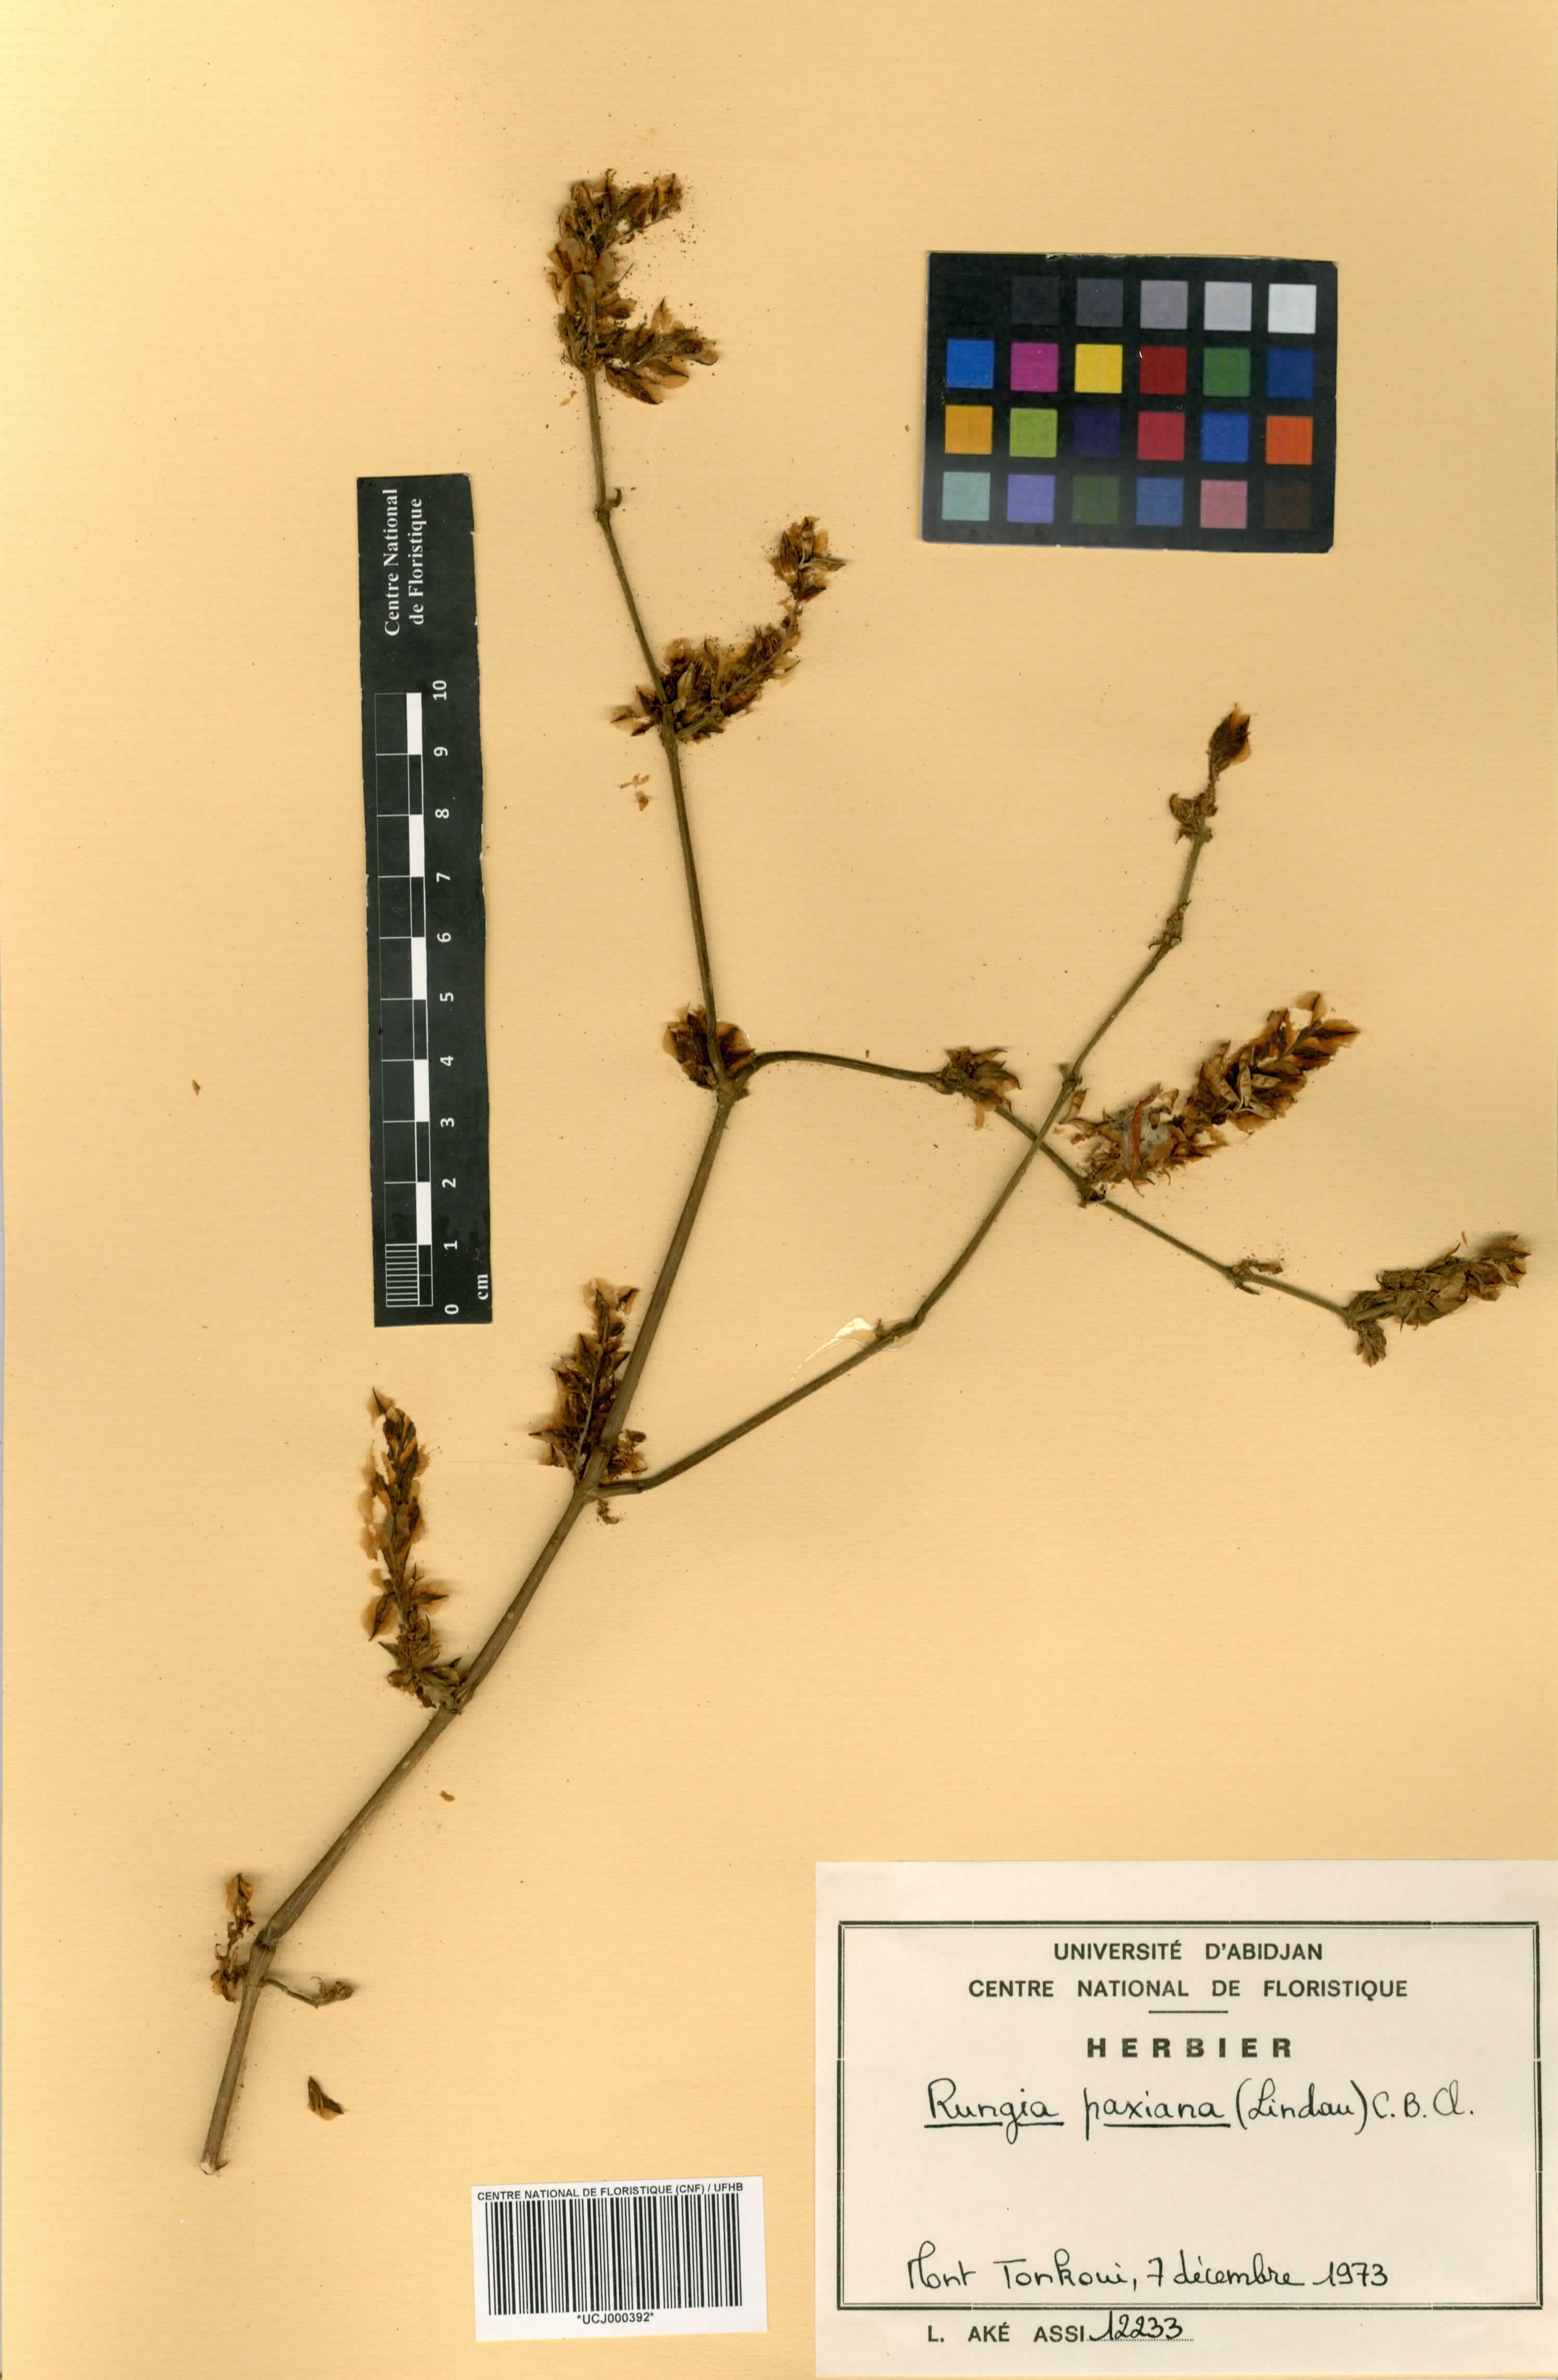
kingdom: Plantae
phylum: Tracheophyta
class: Magnoliopsida
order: Lamiales
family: Acanthaceae
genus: Rungia
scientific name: Rungia paxiana
